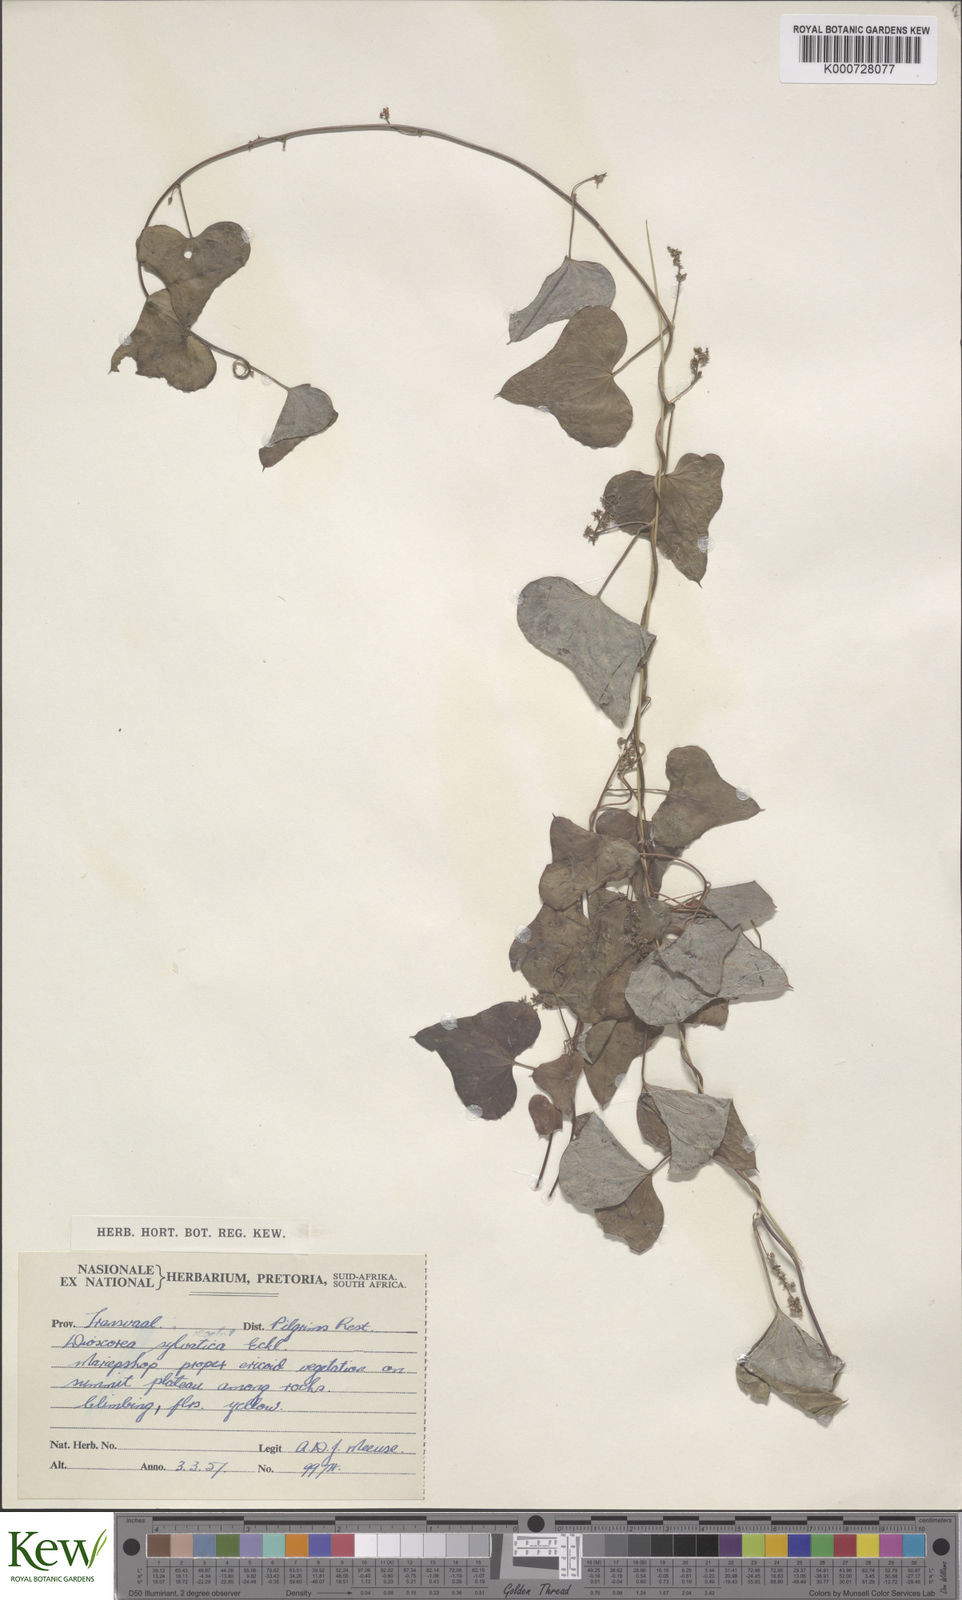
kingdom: Plantae
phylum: Tracheophyta
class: Liliopsida
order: Dioscoreales
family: Dioscoreaceae
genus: Dioscorea
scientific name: Dioscorea sylvatica
